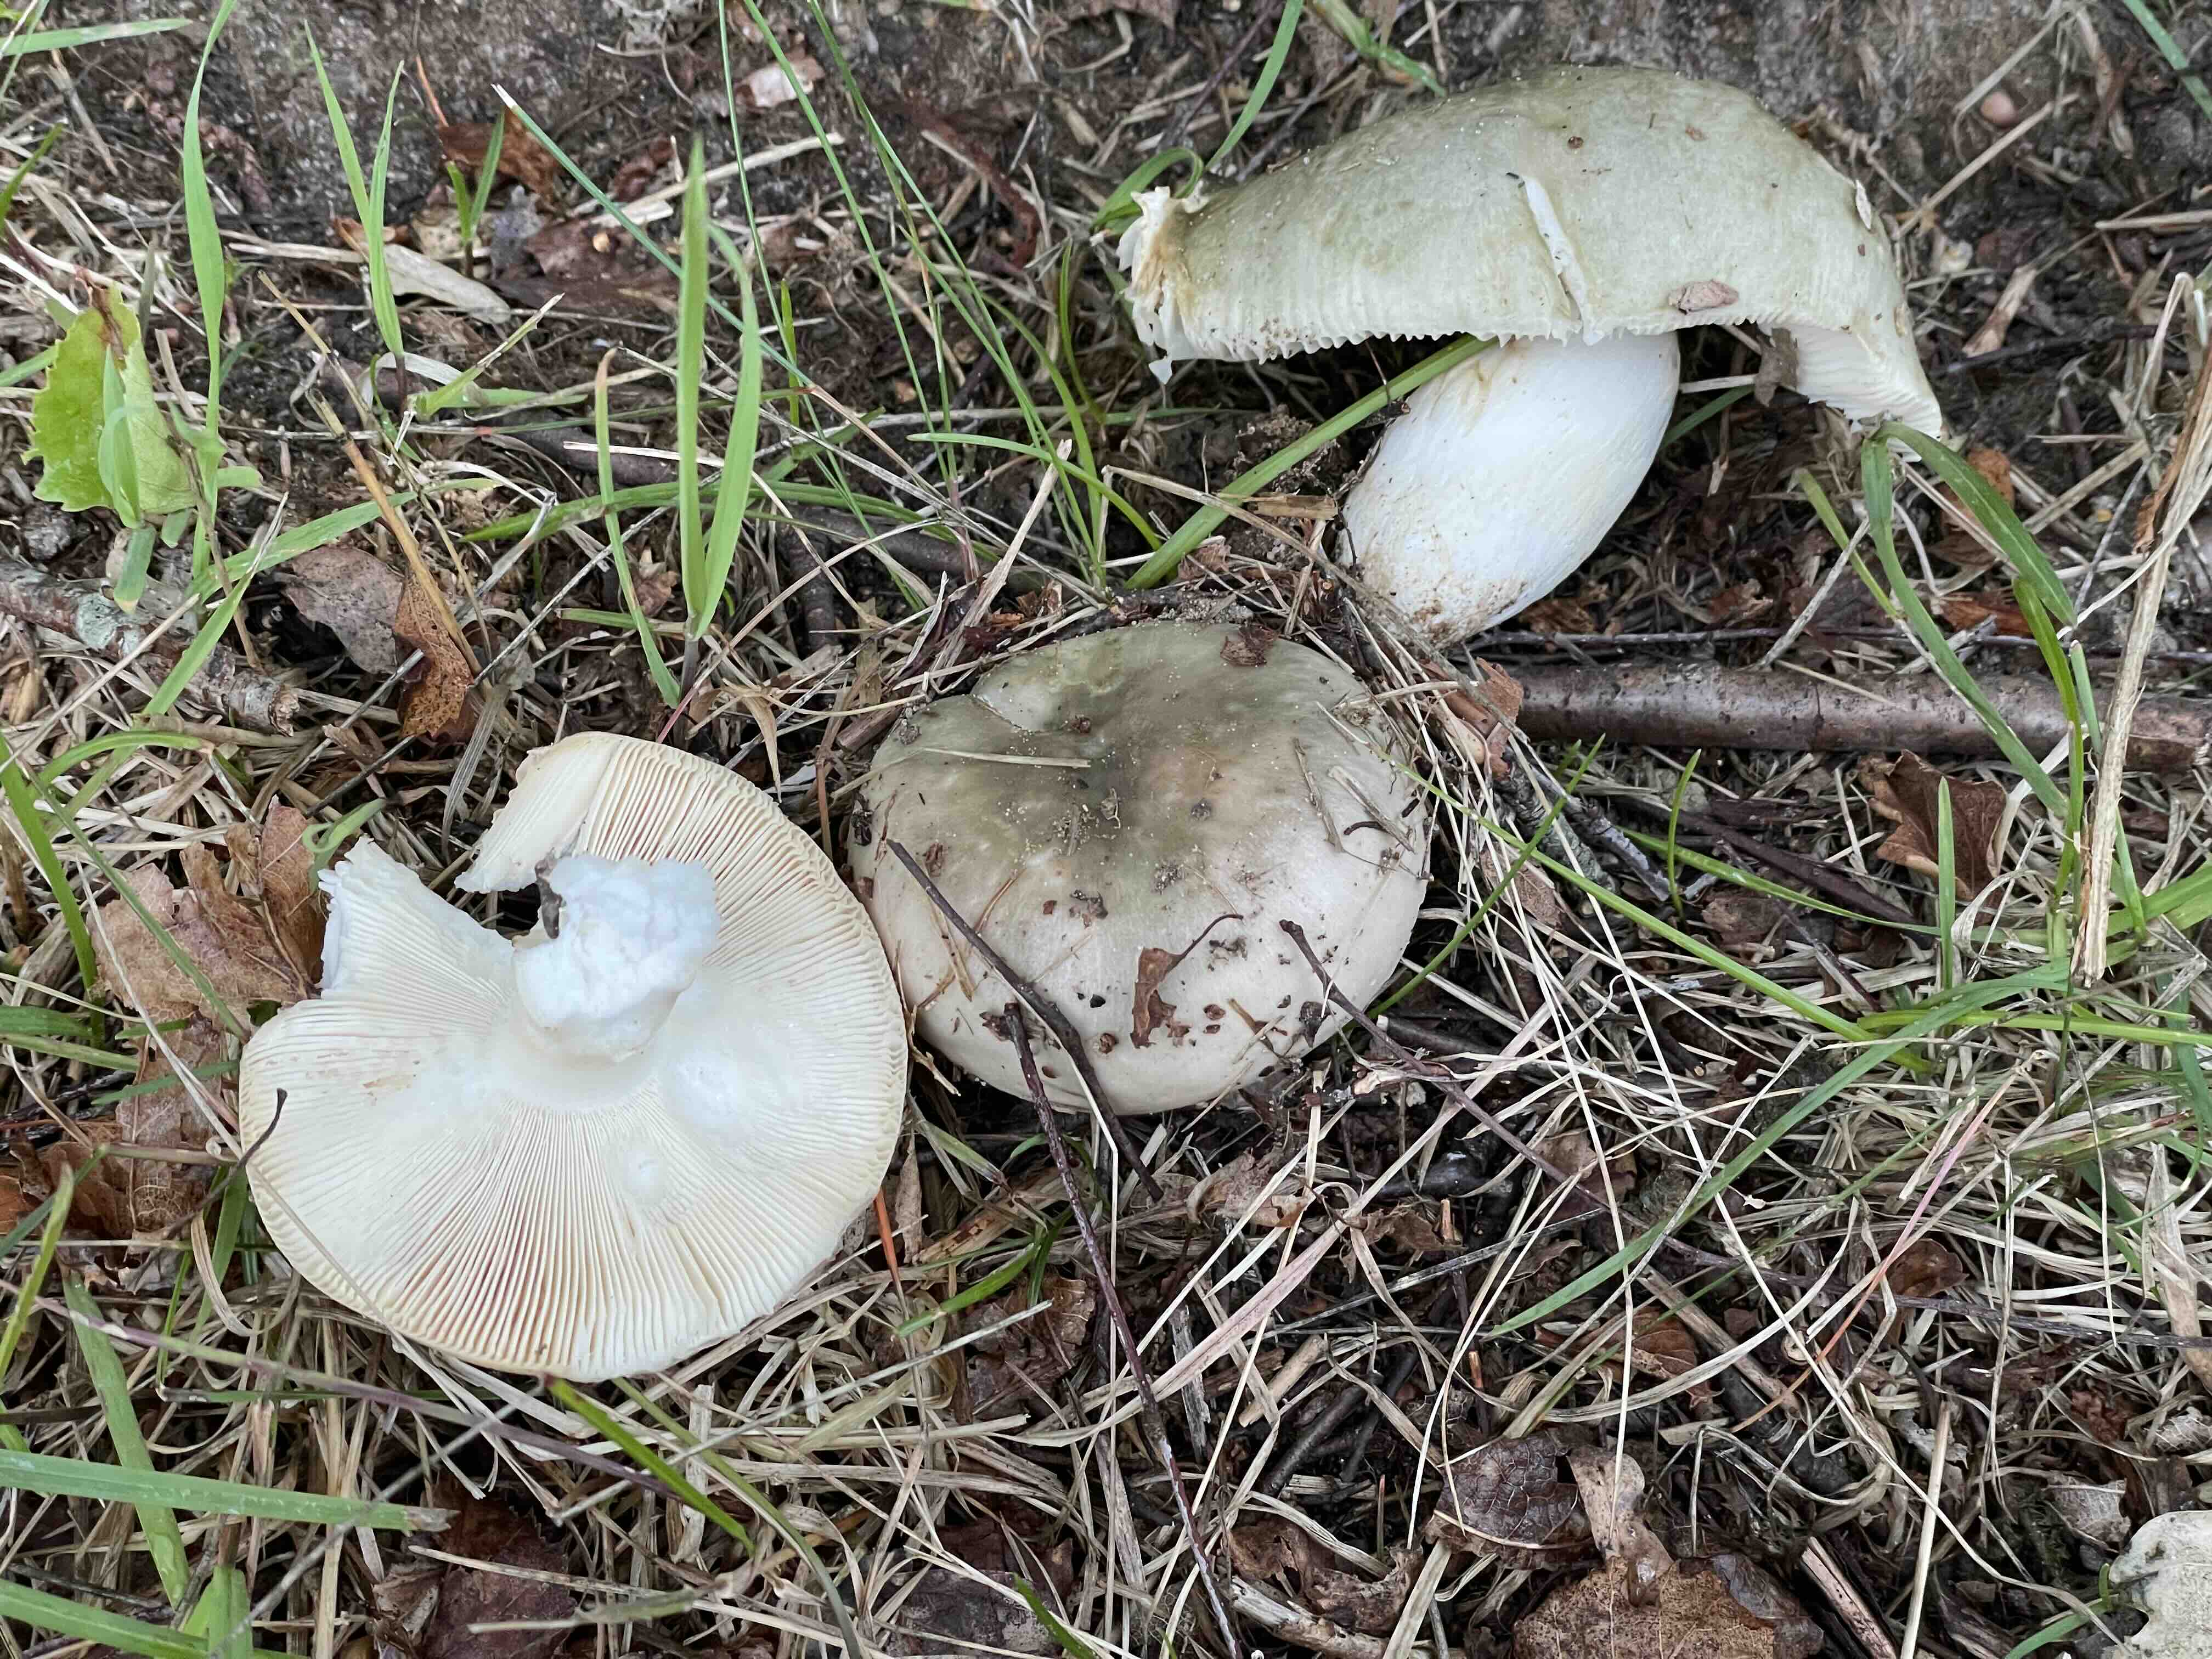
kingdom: Fungi
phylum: Basidiomycota
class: Agaricomycetes
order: Russulales
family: Russulaceae
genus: Russula
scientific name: Russula aeruginea
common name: græsgrøn skørhat
